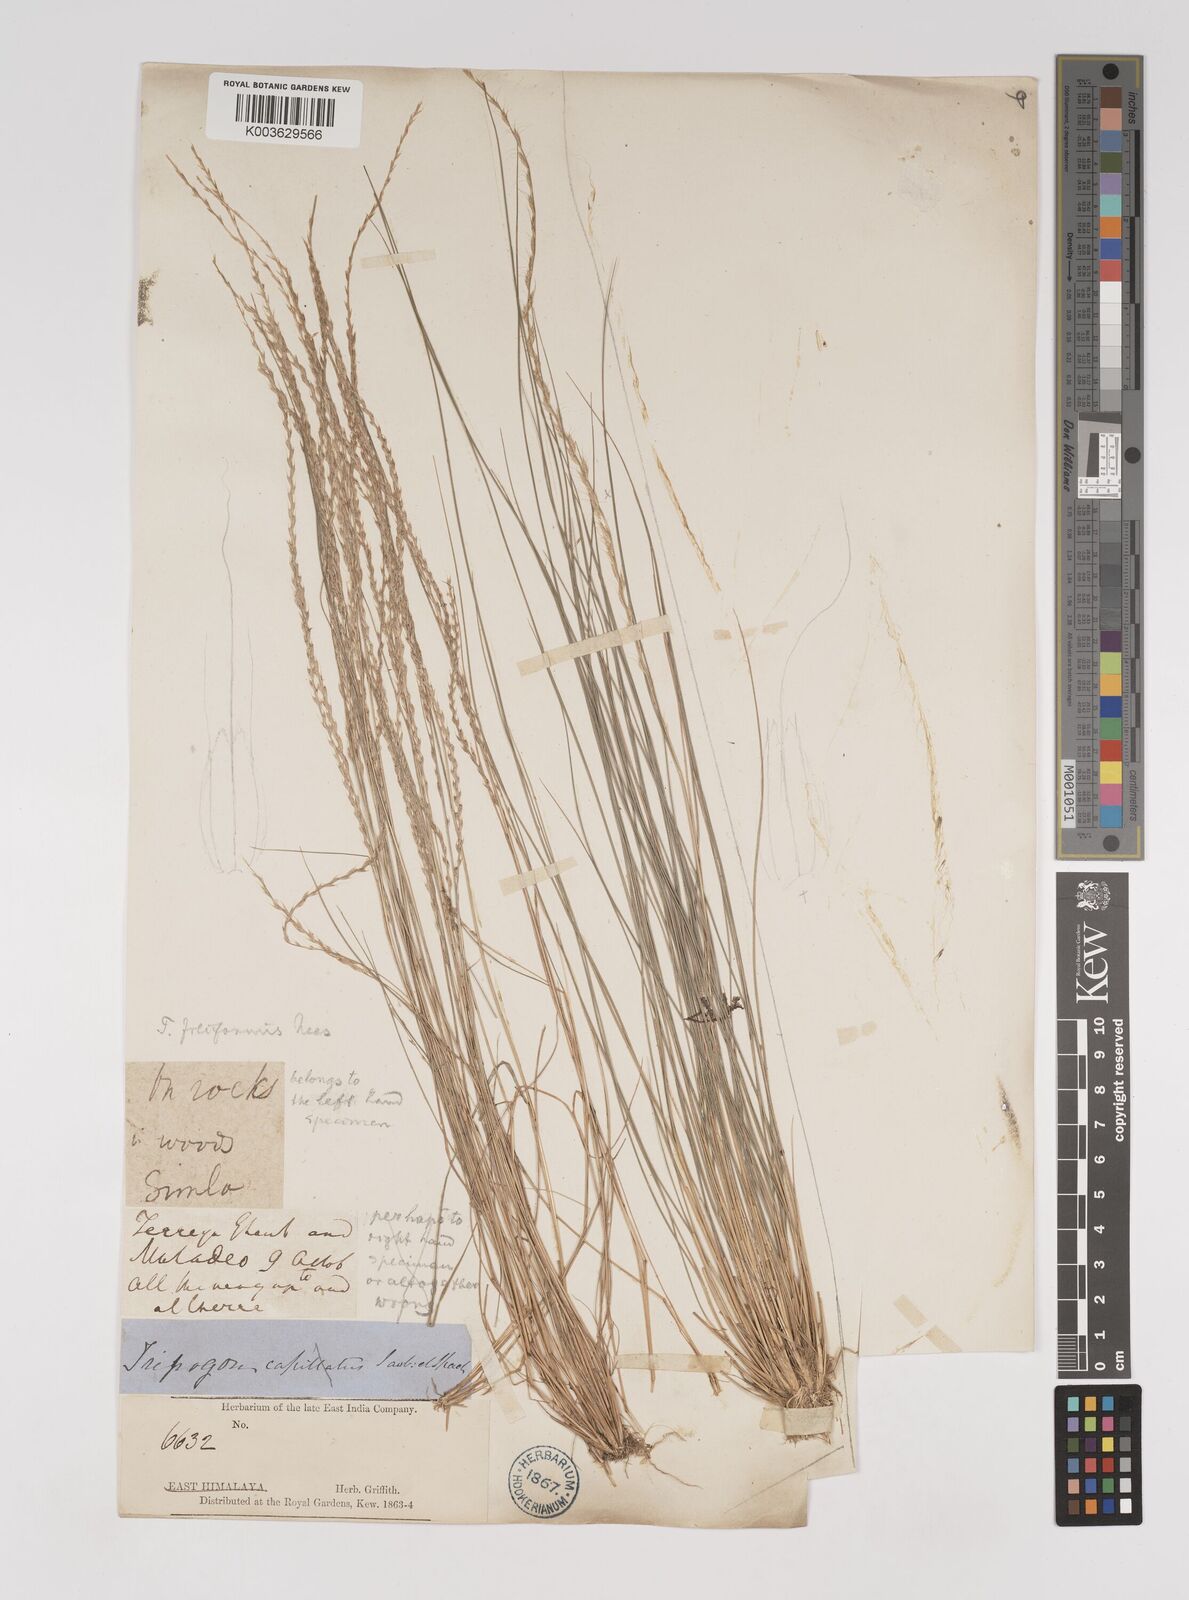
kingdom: Plantae
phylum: Tracheophyta
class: Liliopsida
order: Poales
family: Poaceae
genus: Tripogon
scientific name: Tripogon filiformis
